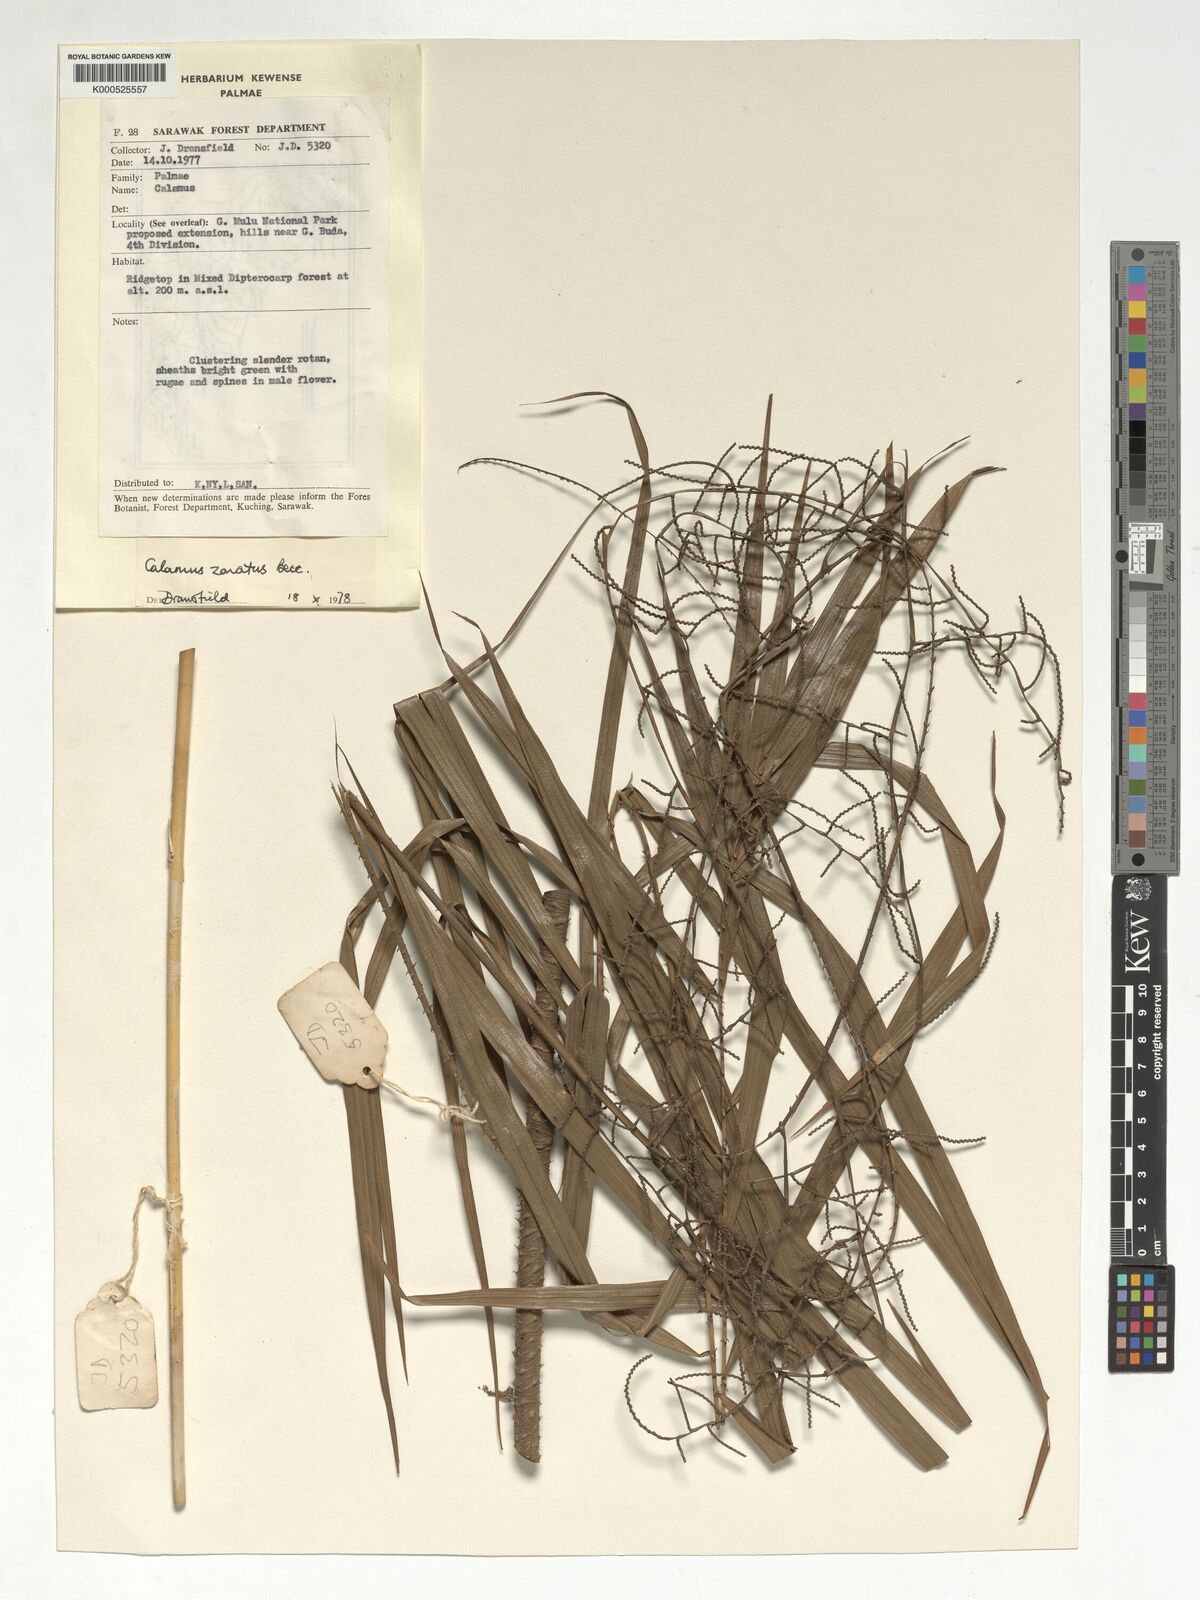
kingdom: Plantae
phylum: Tracheophyta
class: Liliopsida
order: Arecales
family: Arecaceae
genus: Calamus
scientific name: Calamus zonatus
